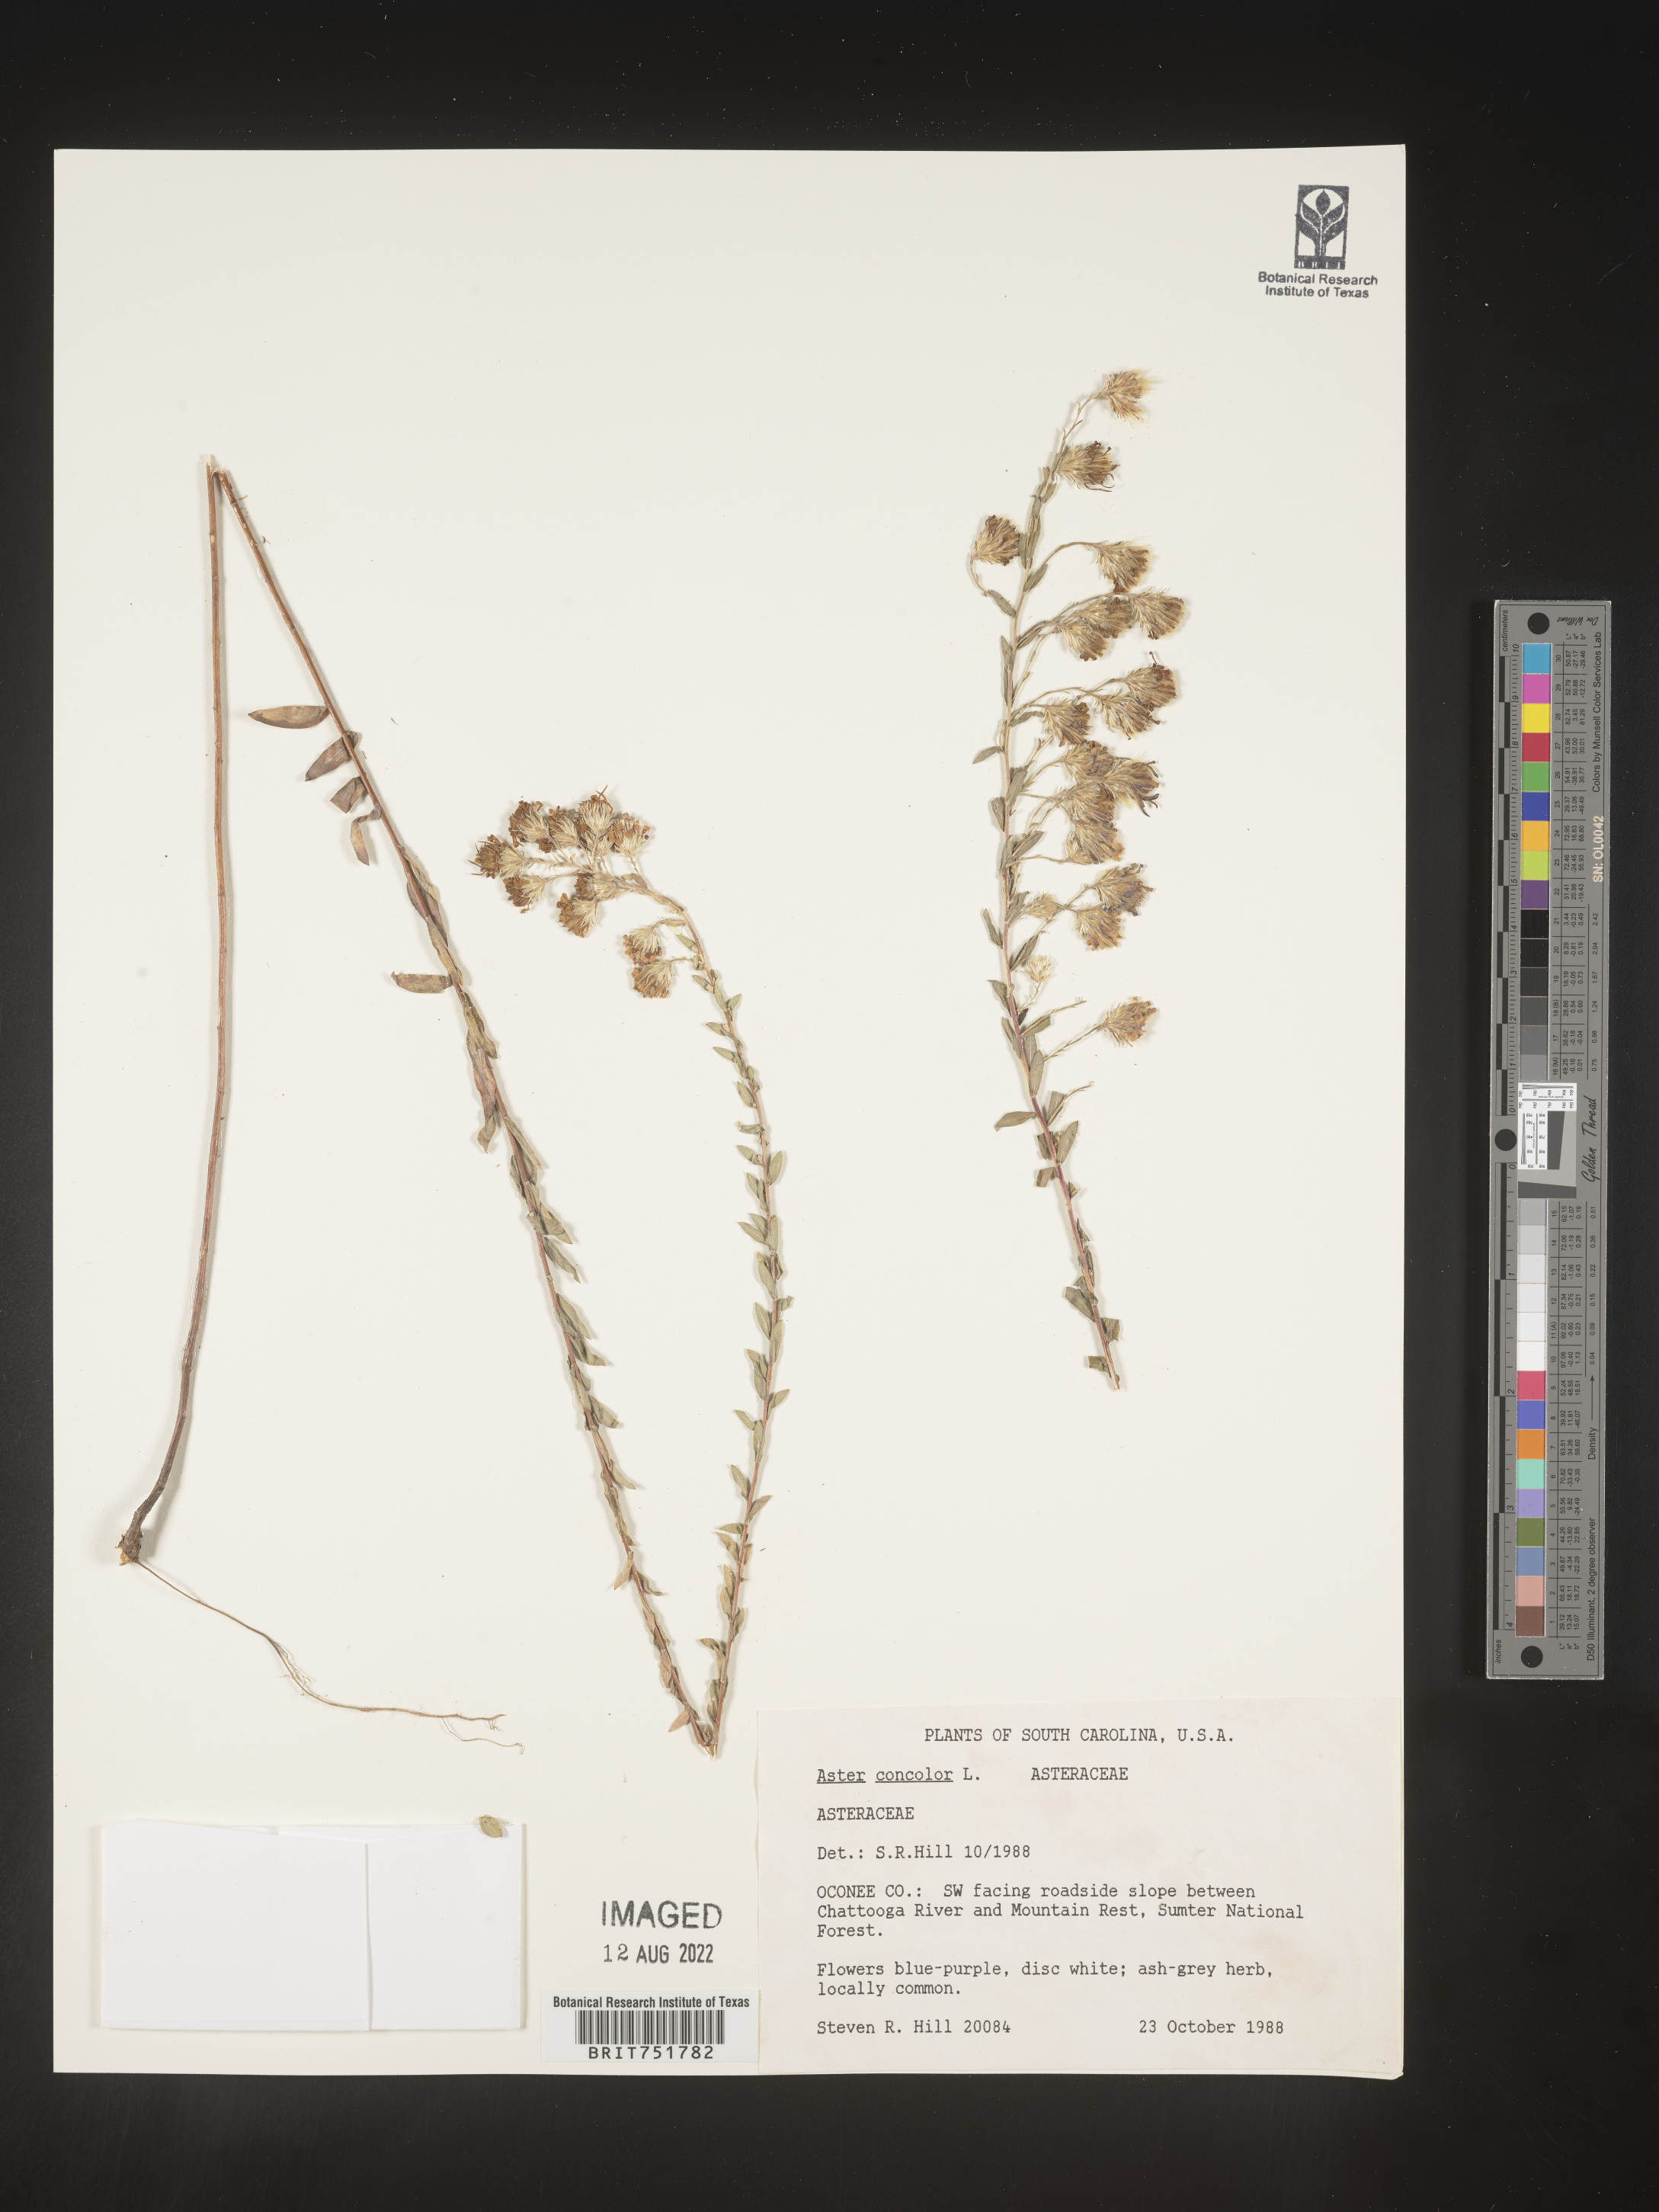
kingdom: Plantae
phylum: Tracheophyta
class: Magnoliopsida
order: Asterales
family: Asteraceae
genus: Symphyotrichum
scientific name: Symphyotrichum concolor
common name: Eastern silver aster
